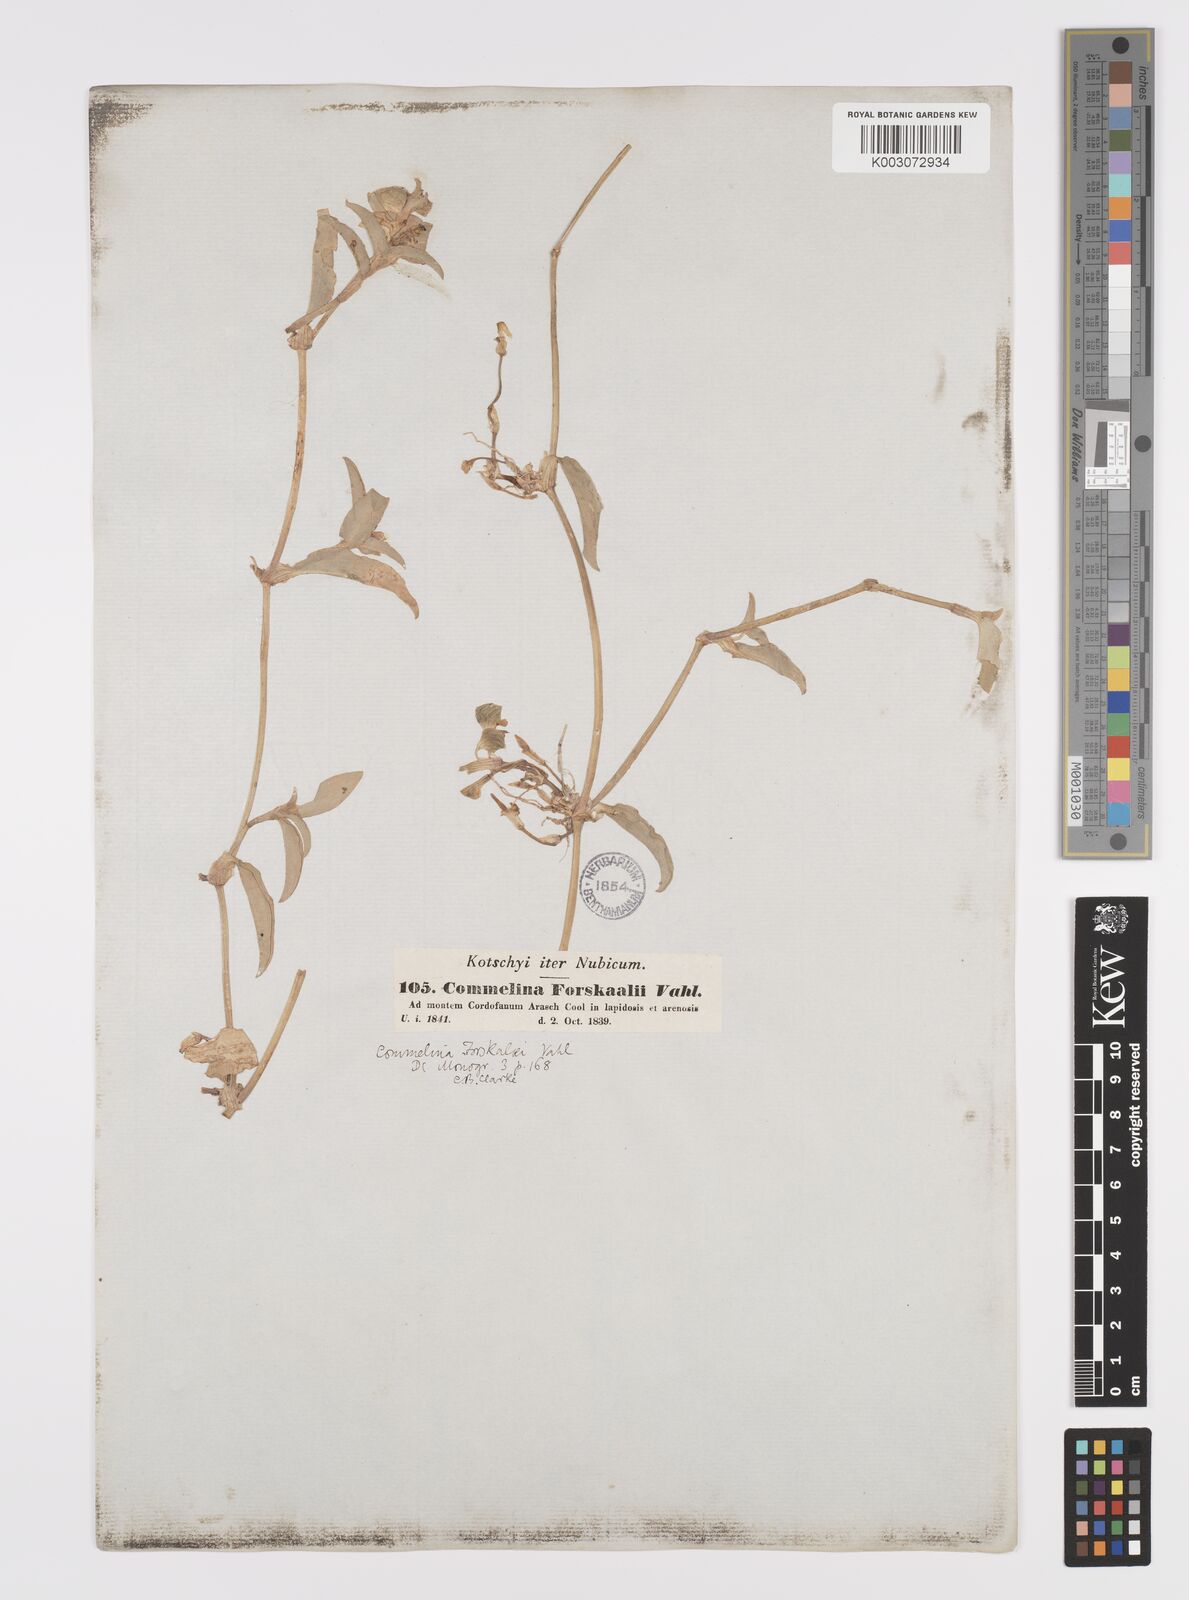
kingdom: Plantae
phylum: Tracheophyta
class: Liliopsida
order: Commelinales
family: Commelinaceae
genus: Commelina
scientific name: Commelina forskaolii
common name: Rat's ear
